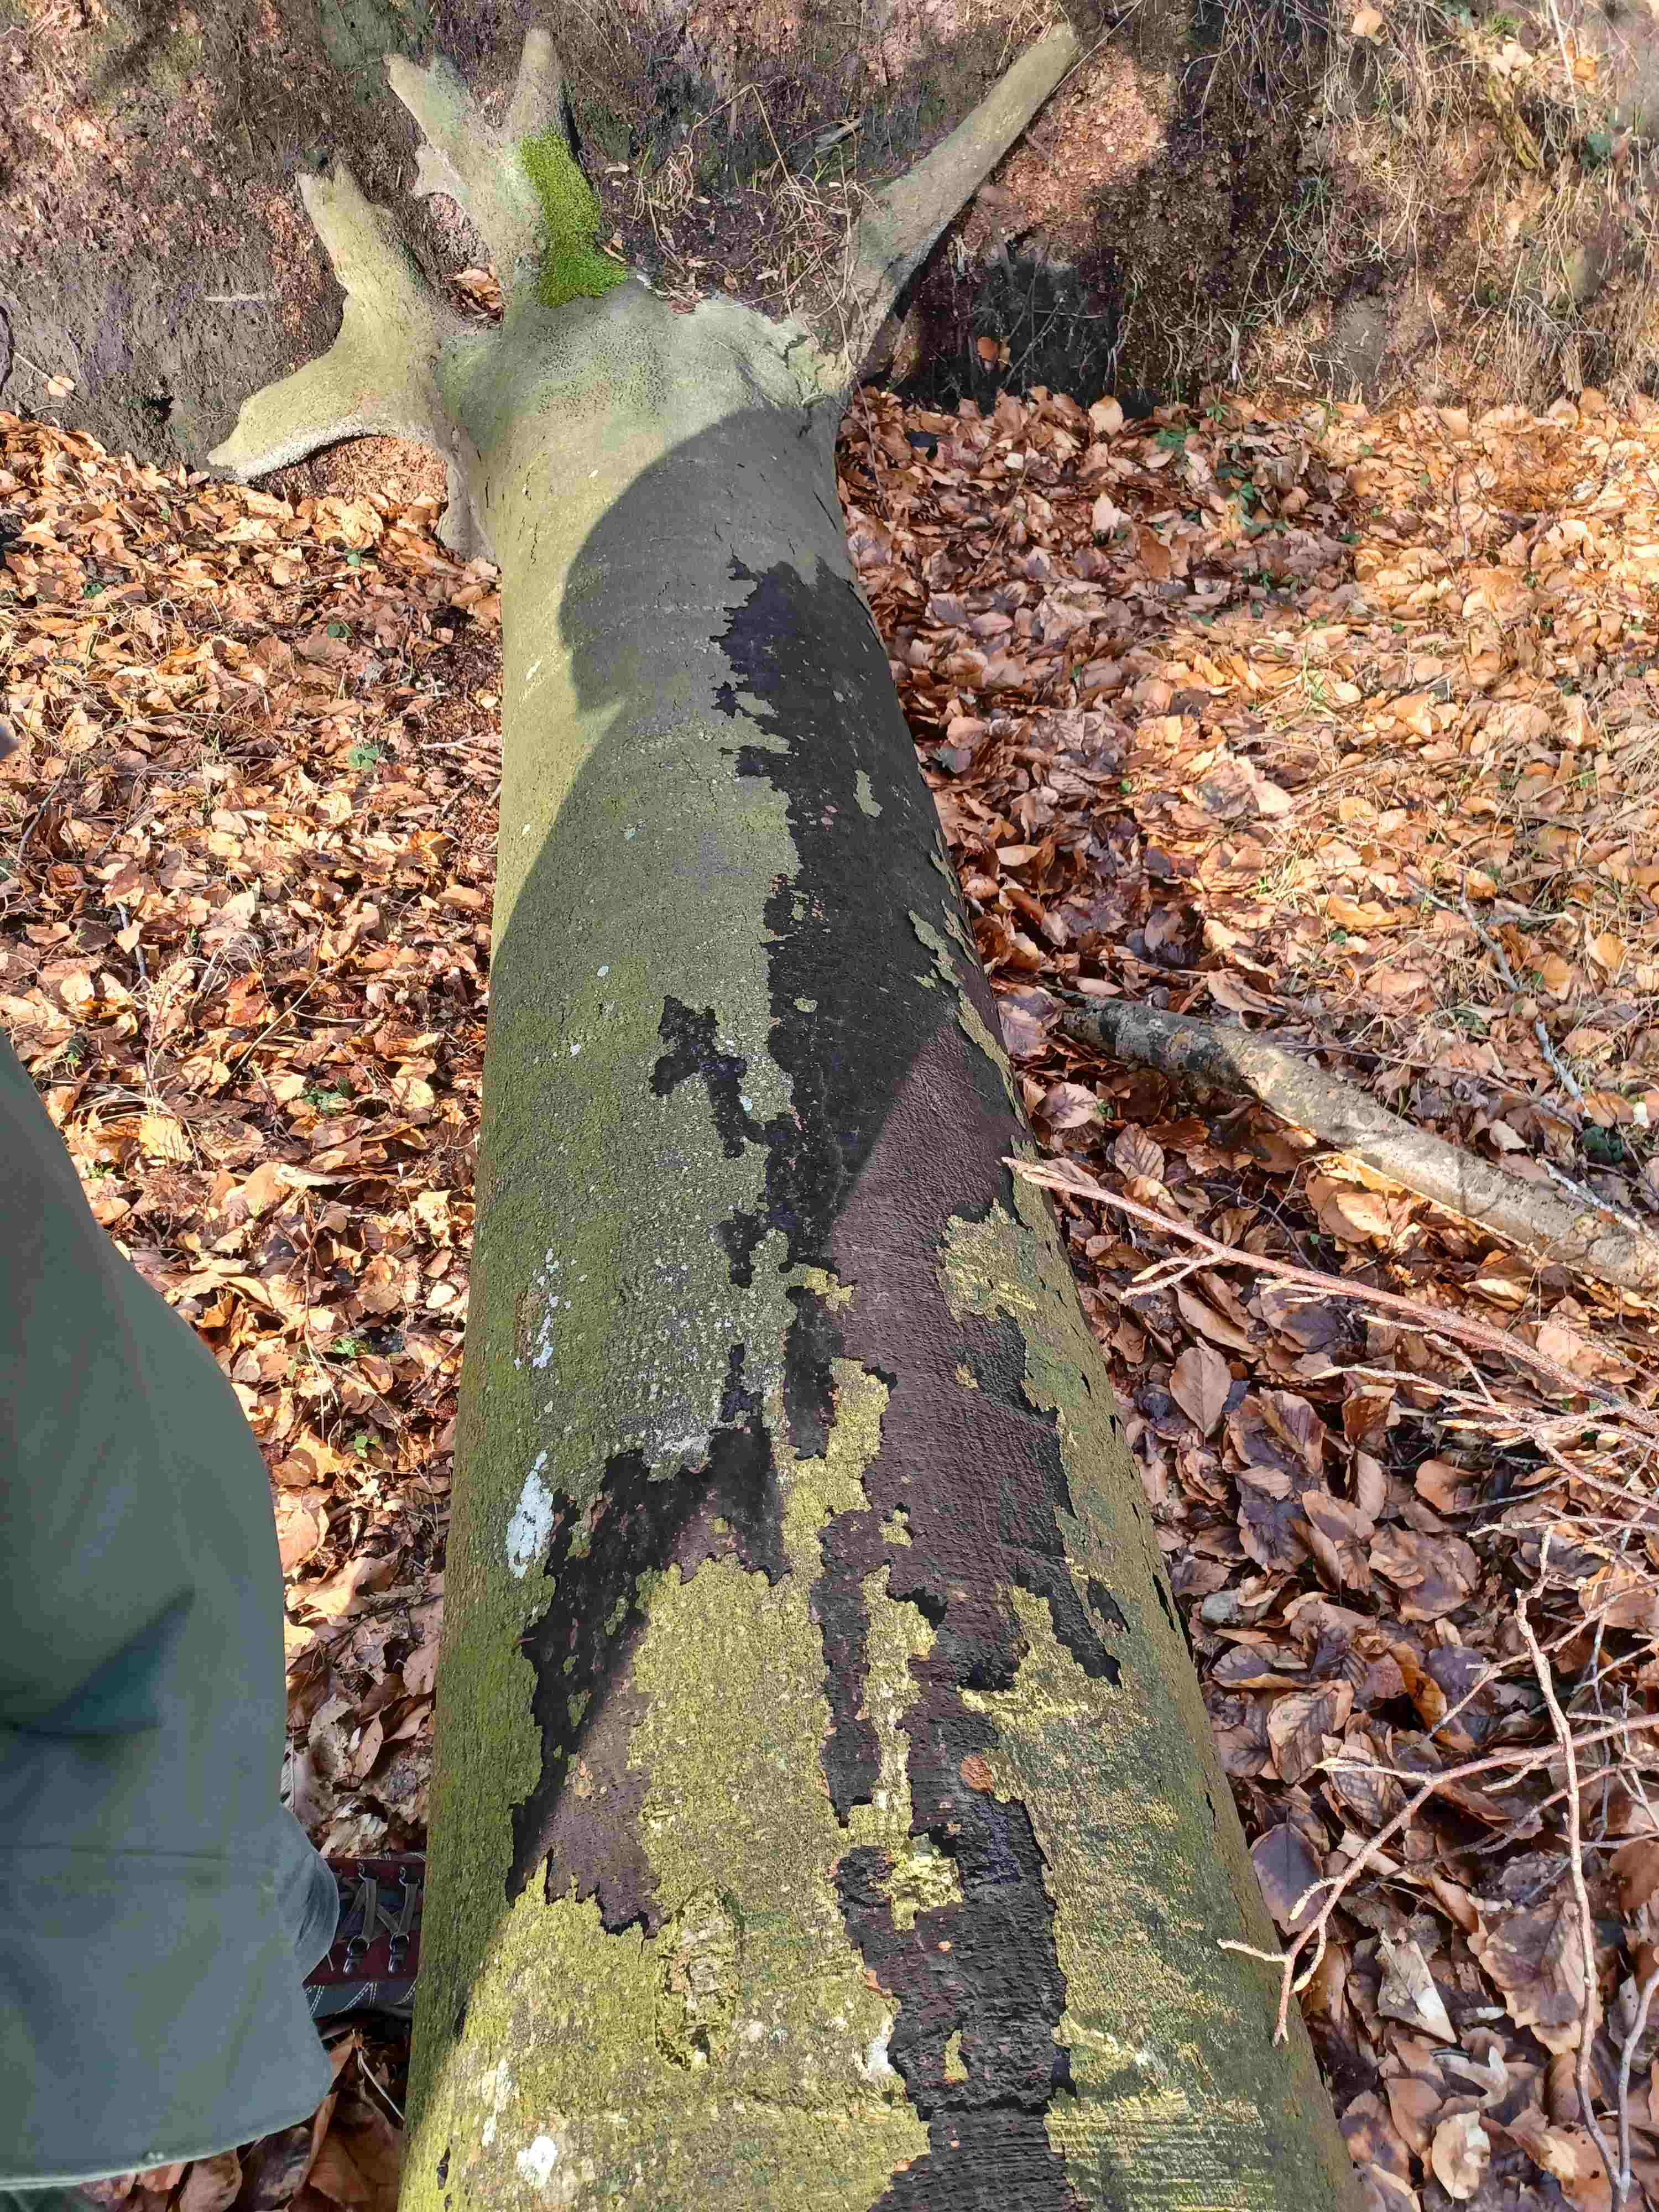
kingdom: Fungi
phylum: Ascomycota
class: Sordariomycetes
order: Xylariales
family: Diatrypaceae
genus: Eutypa
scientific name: Eutypa spinosa
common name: grov kulskorpe
